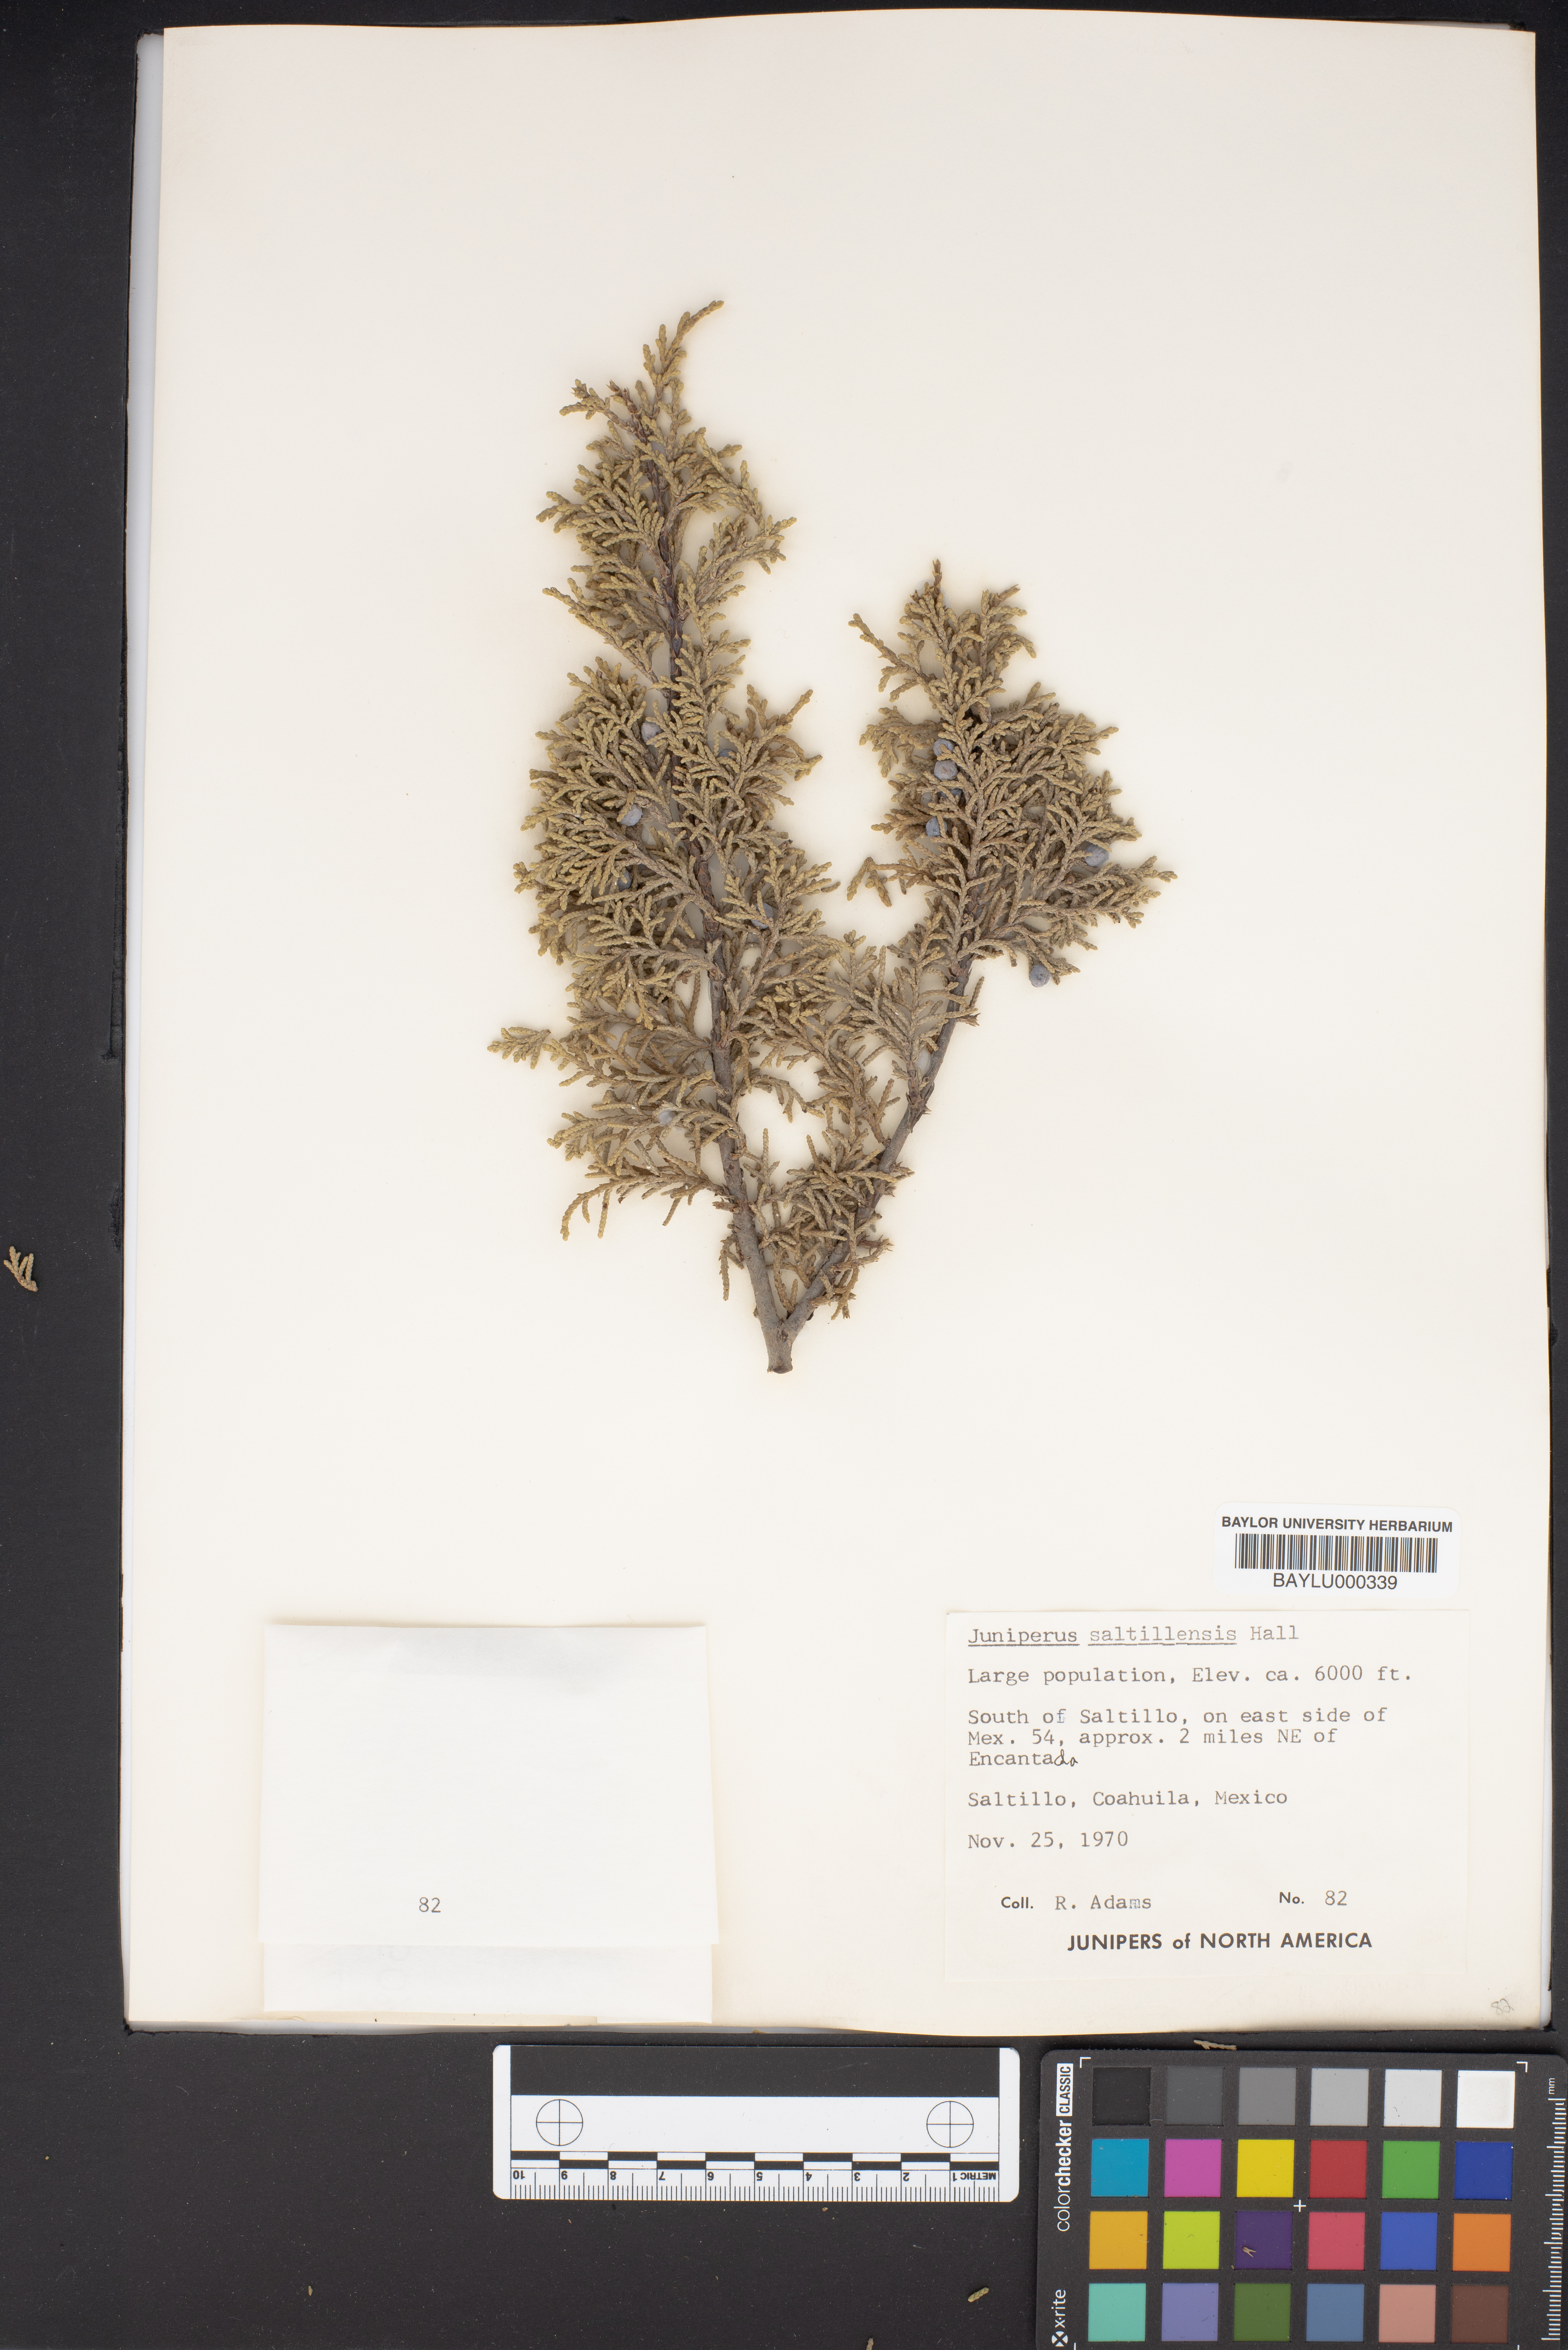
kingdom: Plantae
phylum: Tracheophyta
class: Pinopsida
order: Pinales
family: Cupressaceae
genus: Juniperus
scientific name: Juniperus saltillensis
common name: Saltillo juniper
